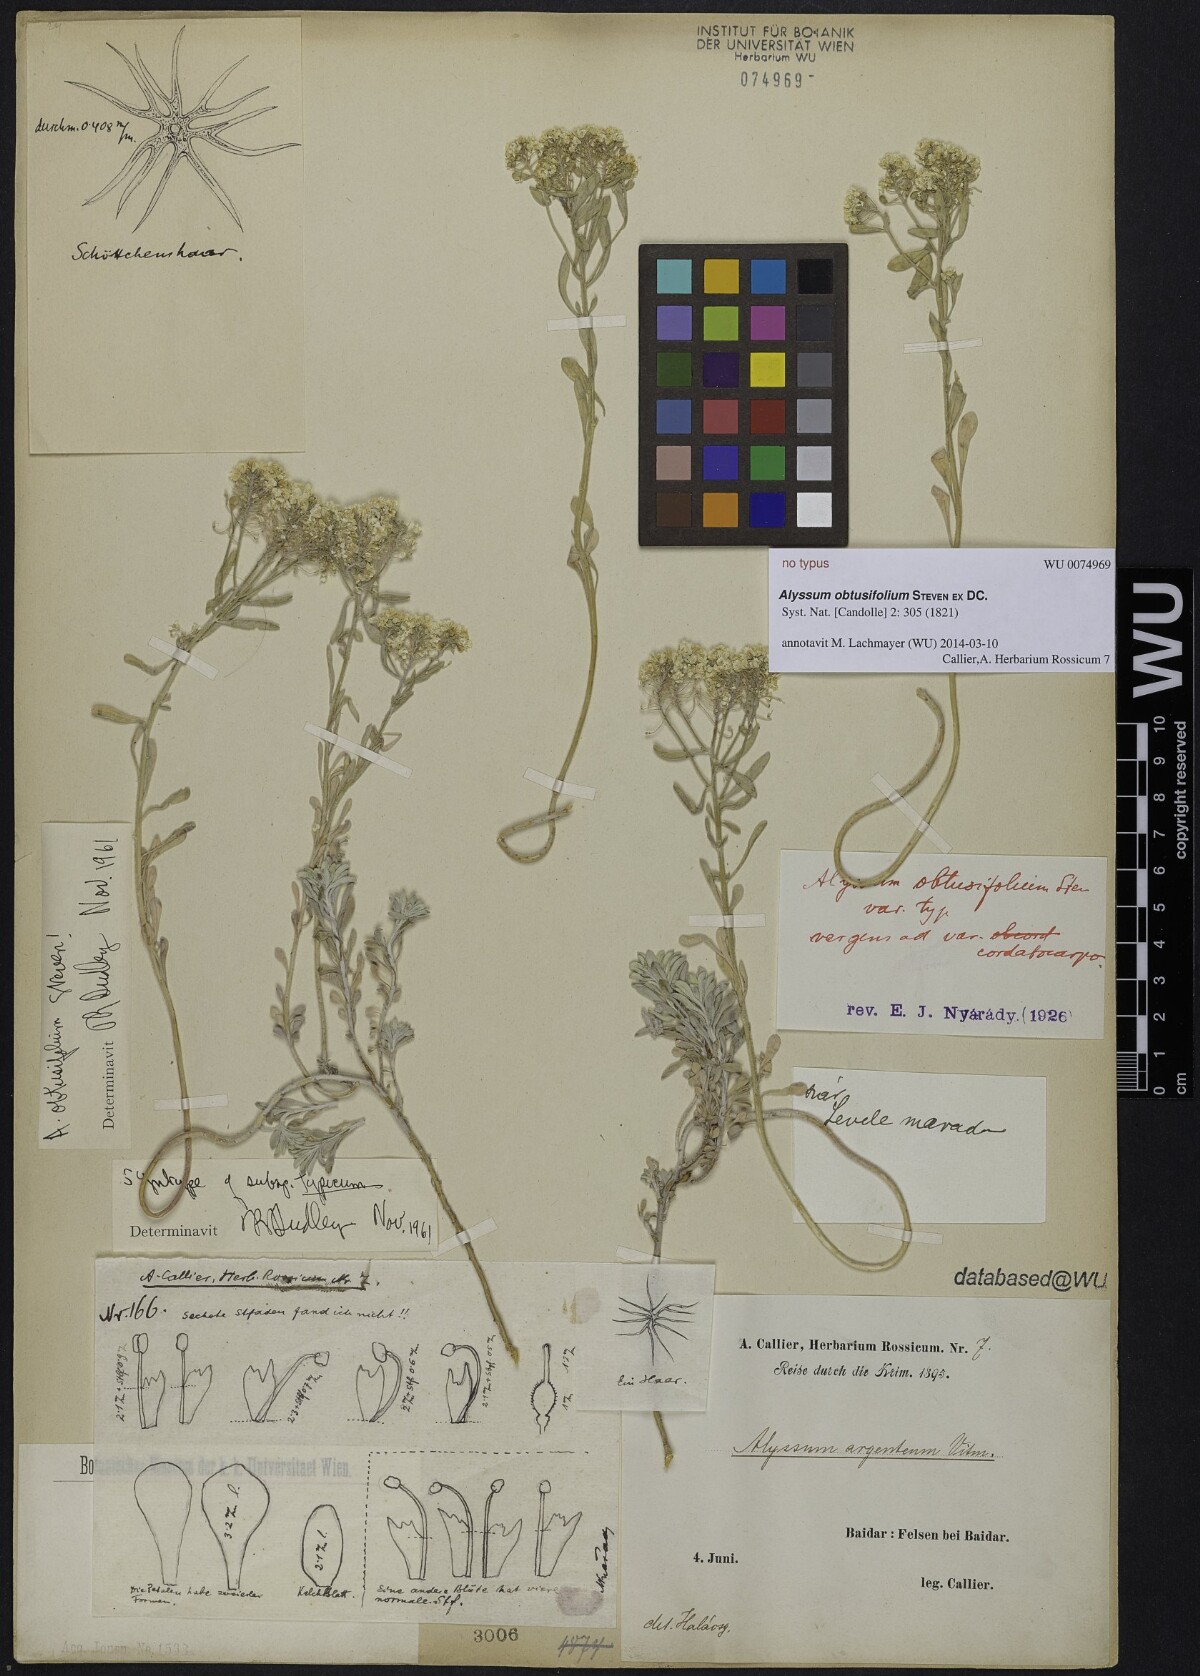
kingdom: Plantae
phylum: Tracheophyta
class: Magnoliopsida
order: Brassicales
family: Brassicaceae
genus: Odontarrhena
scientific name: Odontarrhena obtusifolia
